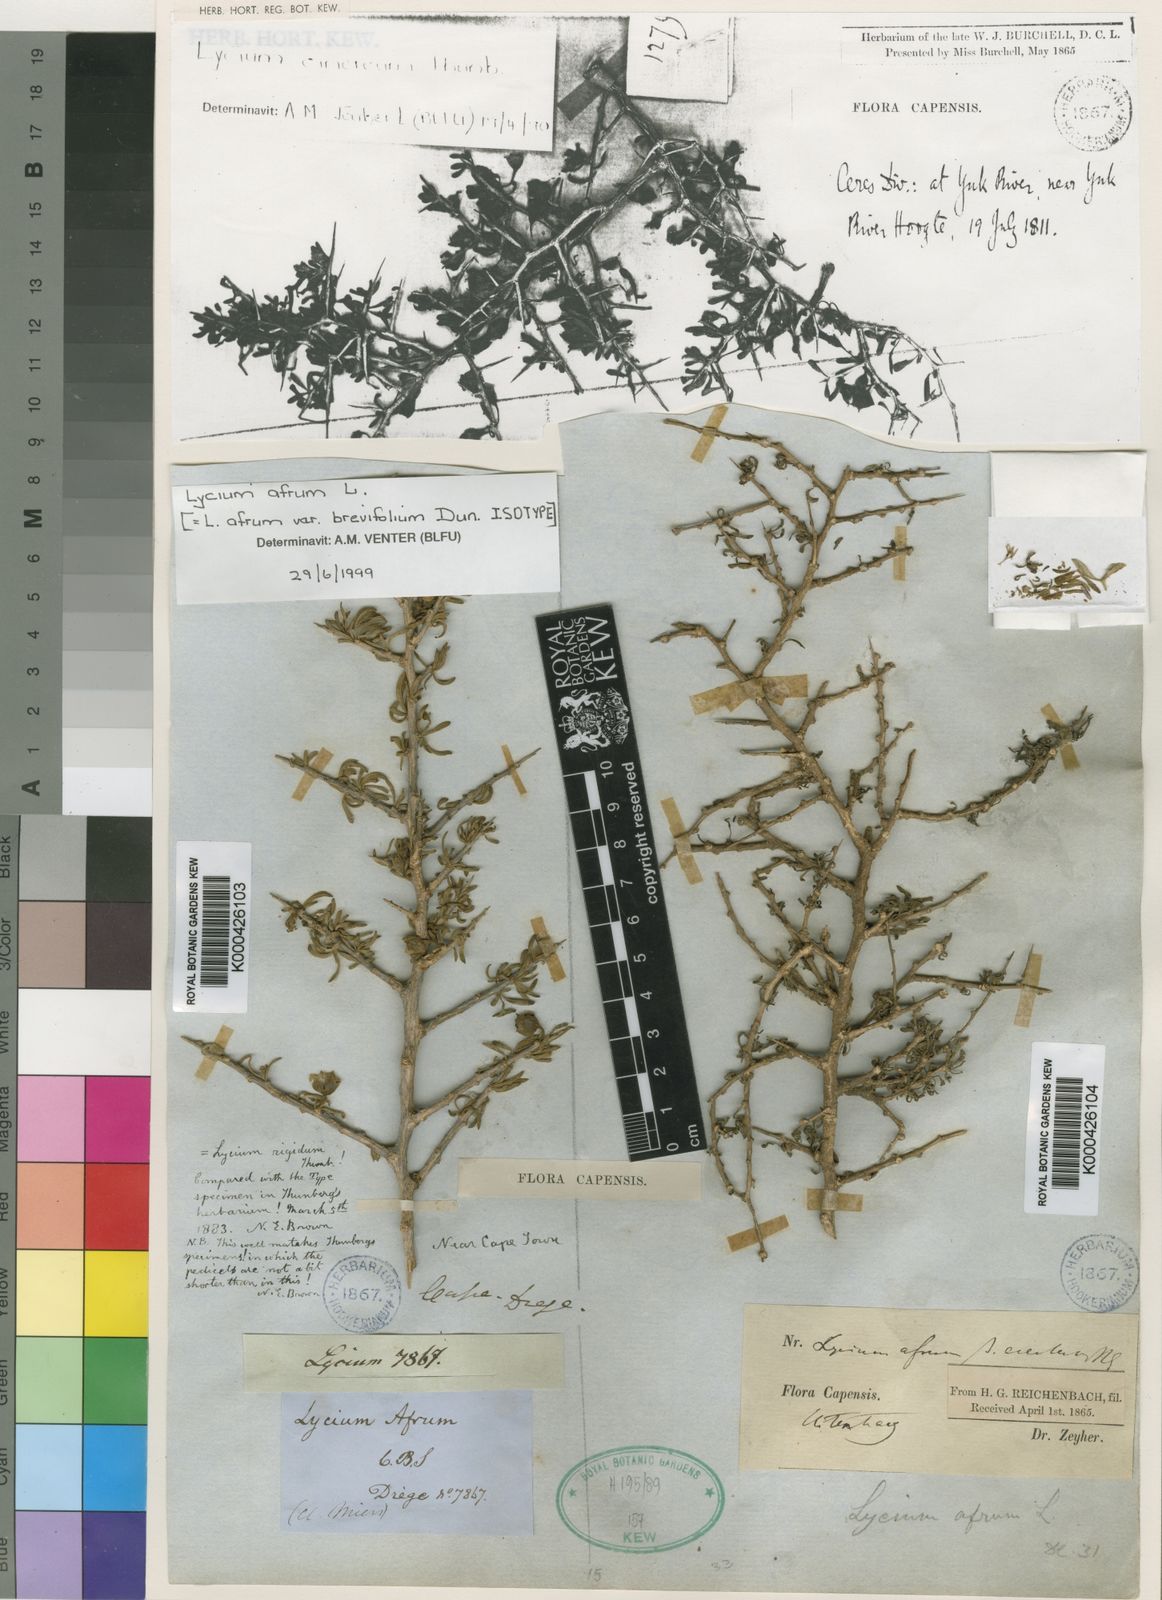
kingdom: Plantae
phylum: Tracheophyta
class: Magnoliopsida
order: Solanales
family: Solanaceae
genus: Lycium
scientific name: Lycium afrum
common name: Kaffir boxthorn
